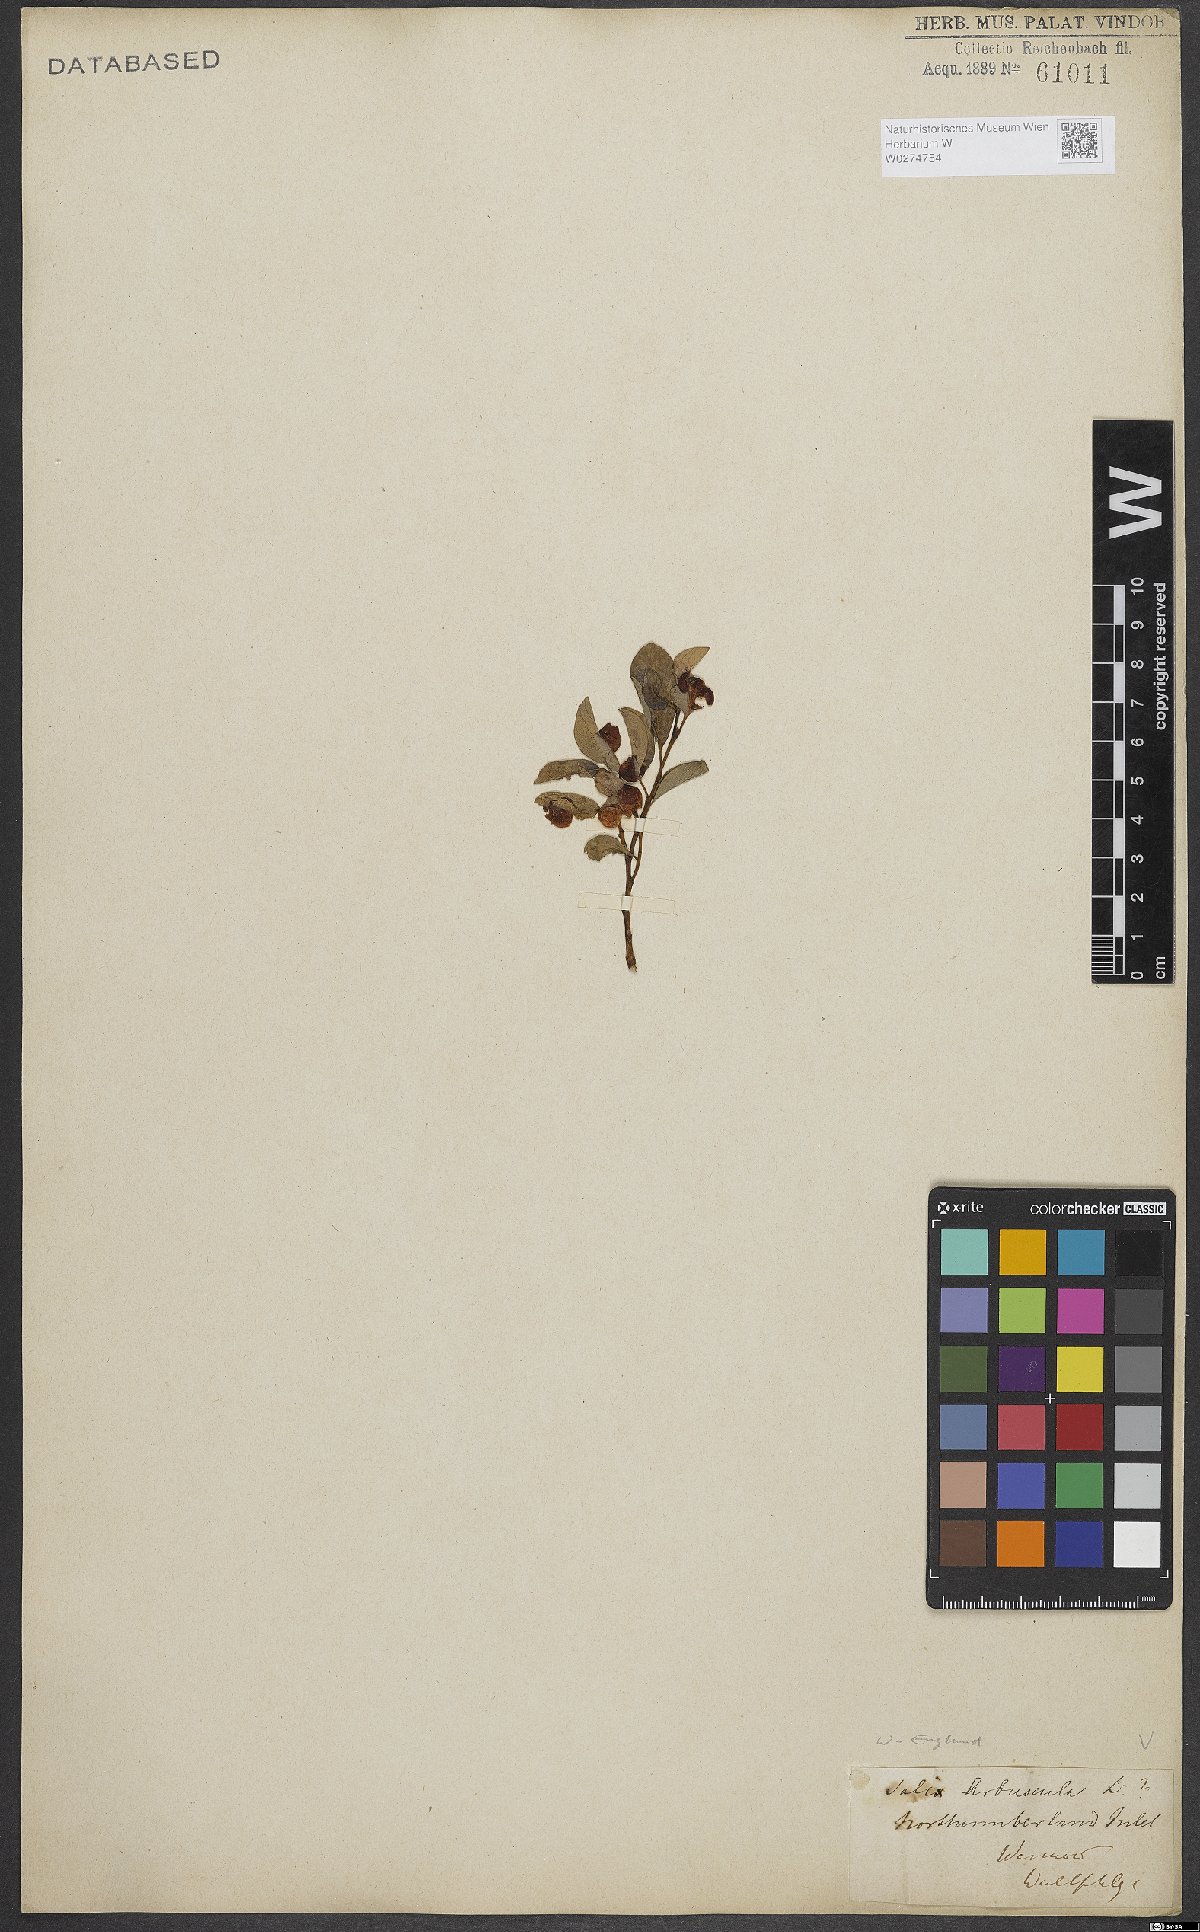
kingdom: Plantae
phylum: Tracheophyta
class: Magnoliopsida
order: Malpighiales
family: Salicaceae
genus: Salix
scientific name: Salix arbuscula
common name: Mountain willow
